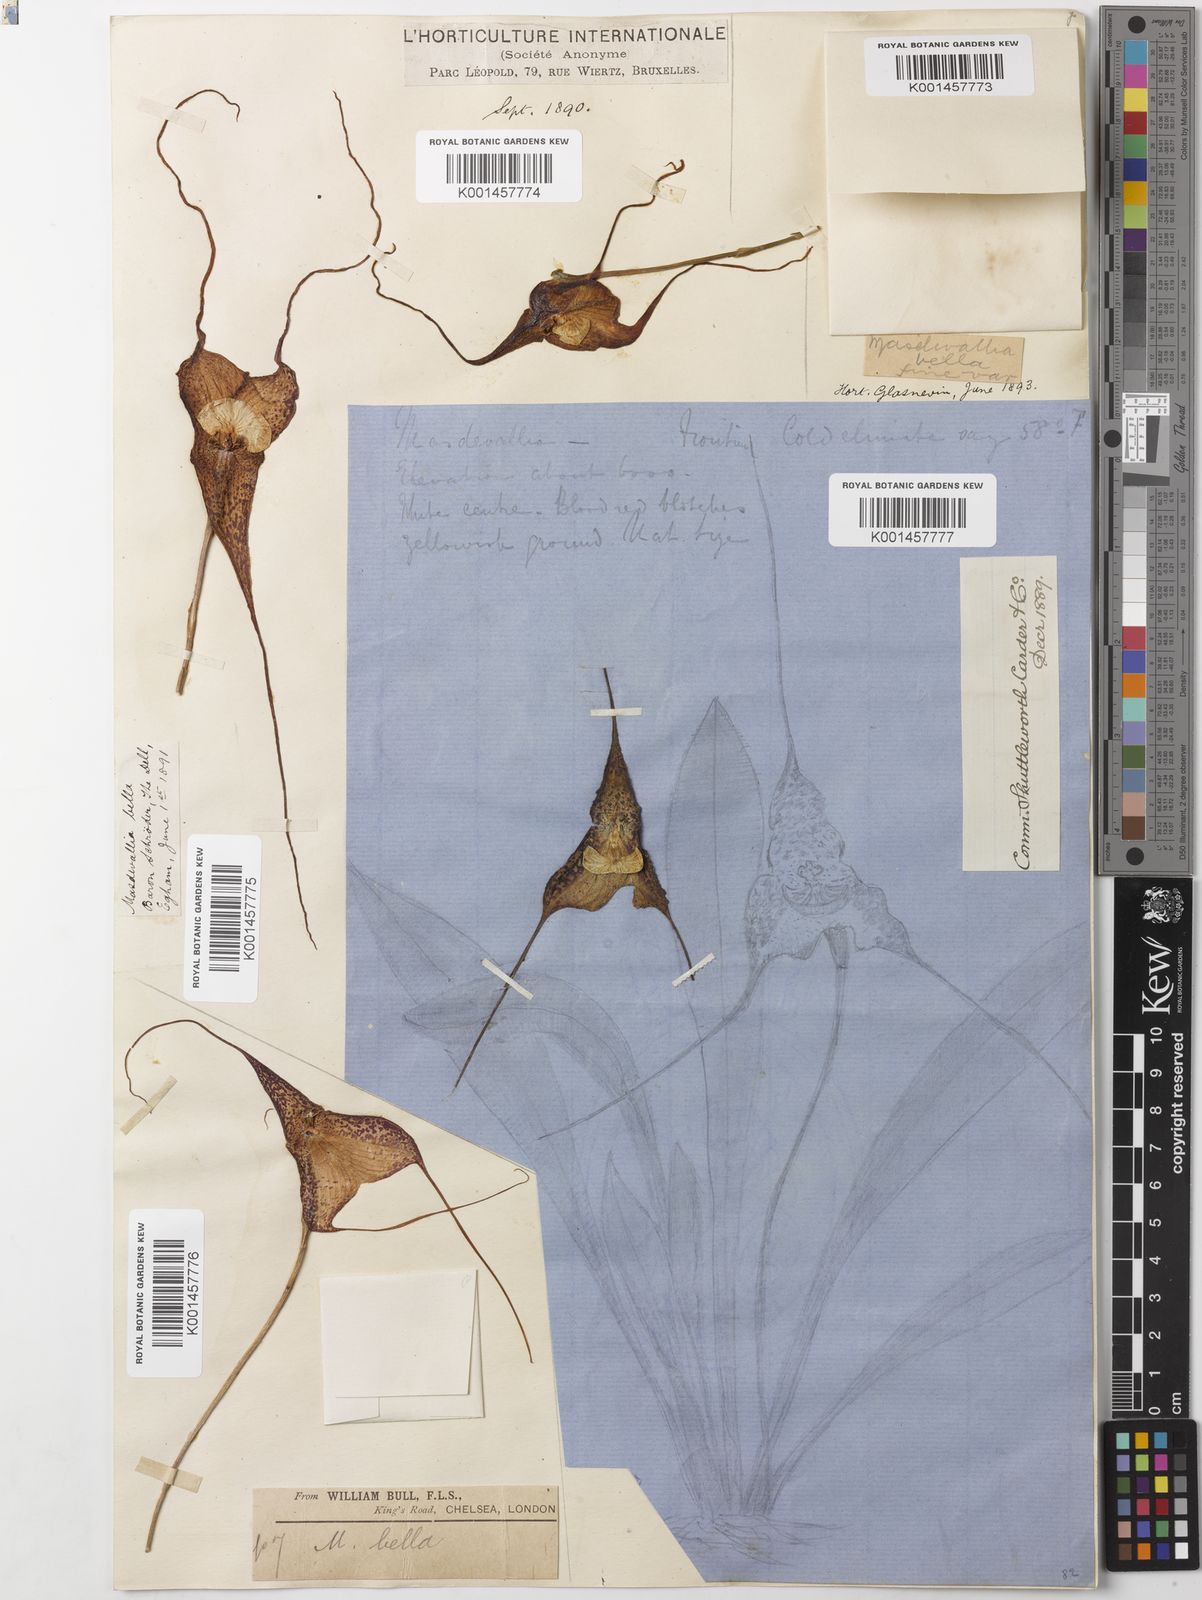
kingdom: Plantae
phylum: Tracheophyta
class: Liliopsida
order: Asparagales
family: Orchidaceae
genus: Dracula
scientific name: Dracula bella
